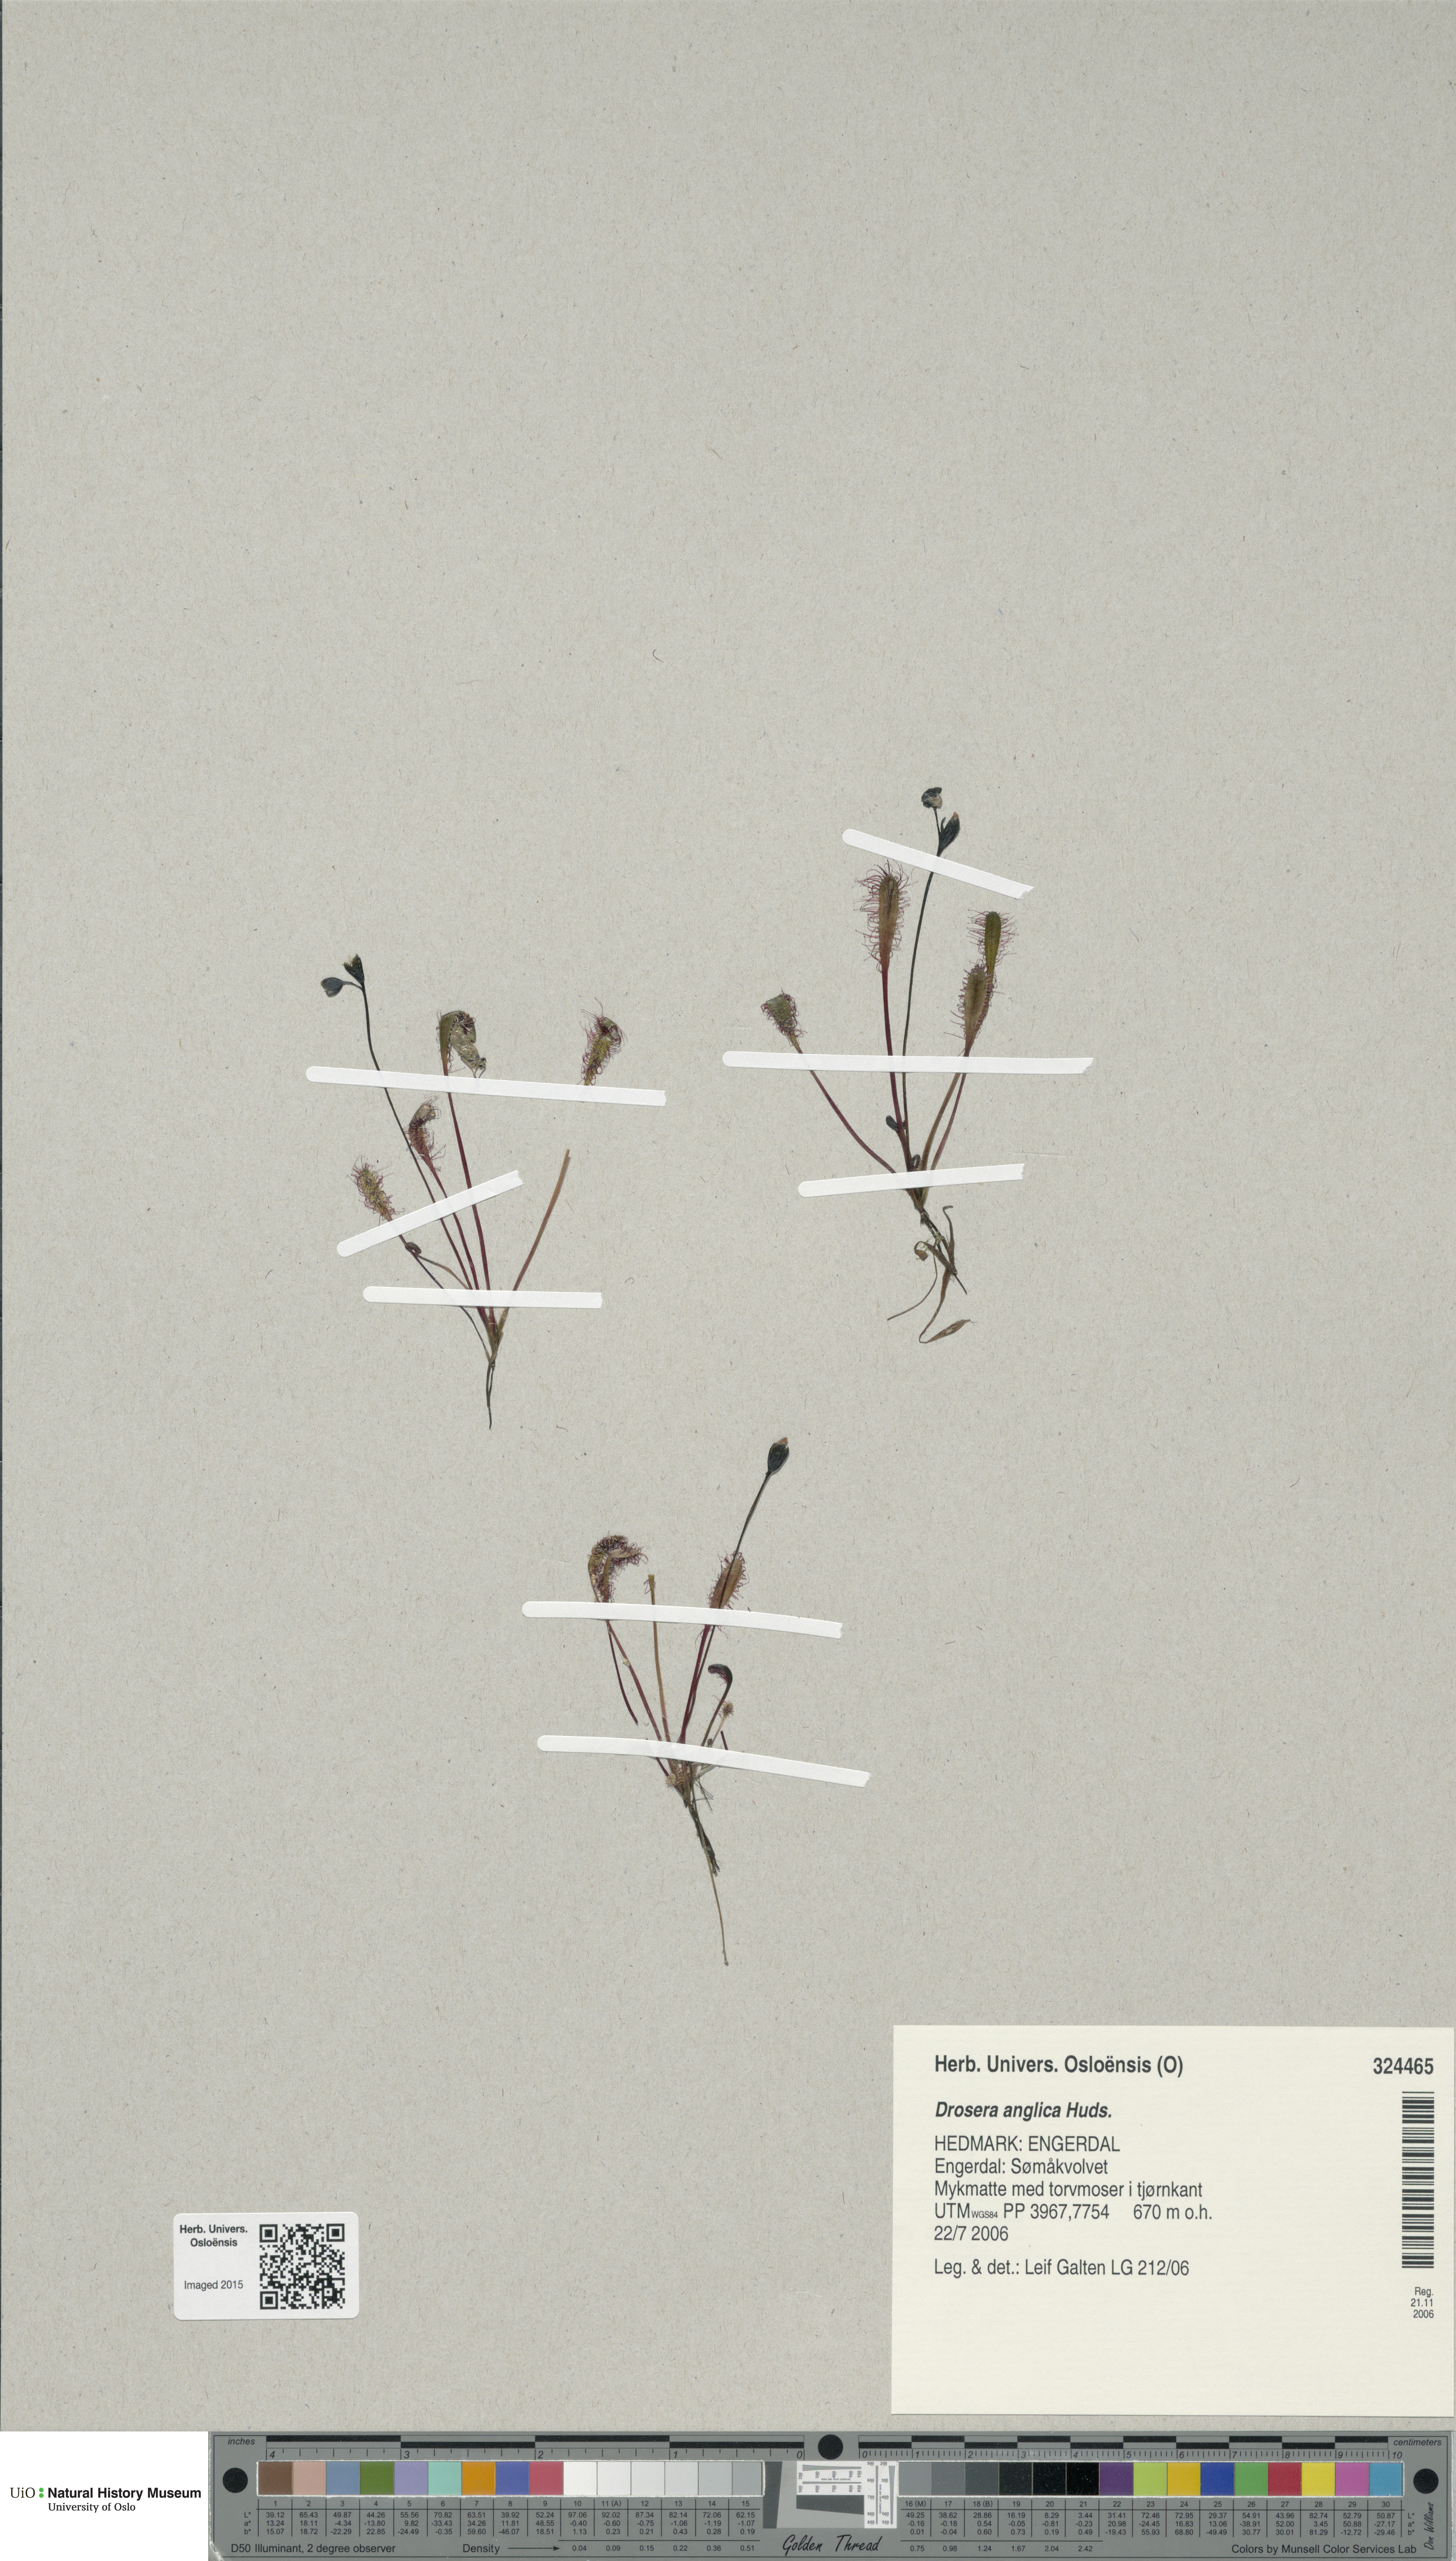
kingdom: Plantae
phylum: Tracheophyta
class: Magnoliopsida
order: Caryophyllales
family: Droseraceae
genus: Drosera
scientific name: Drosera anglica
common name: Great sundew
